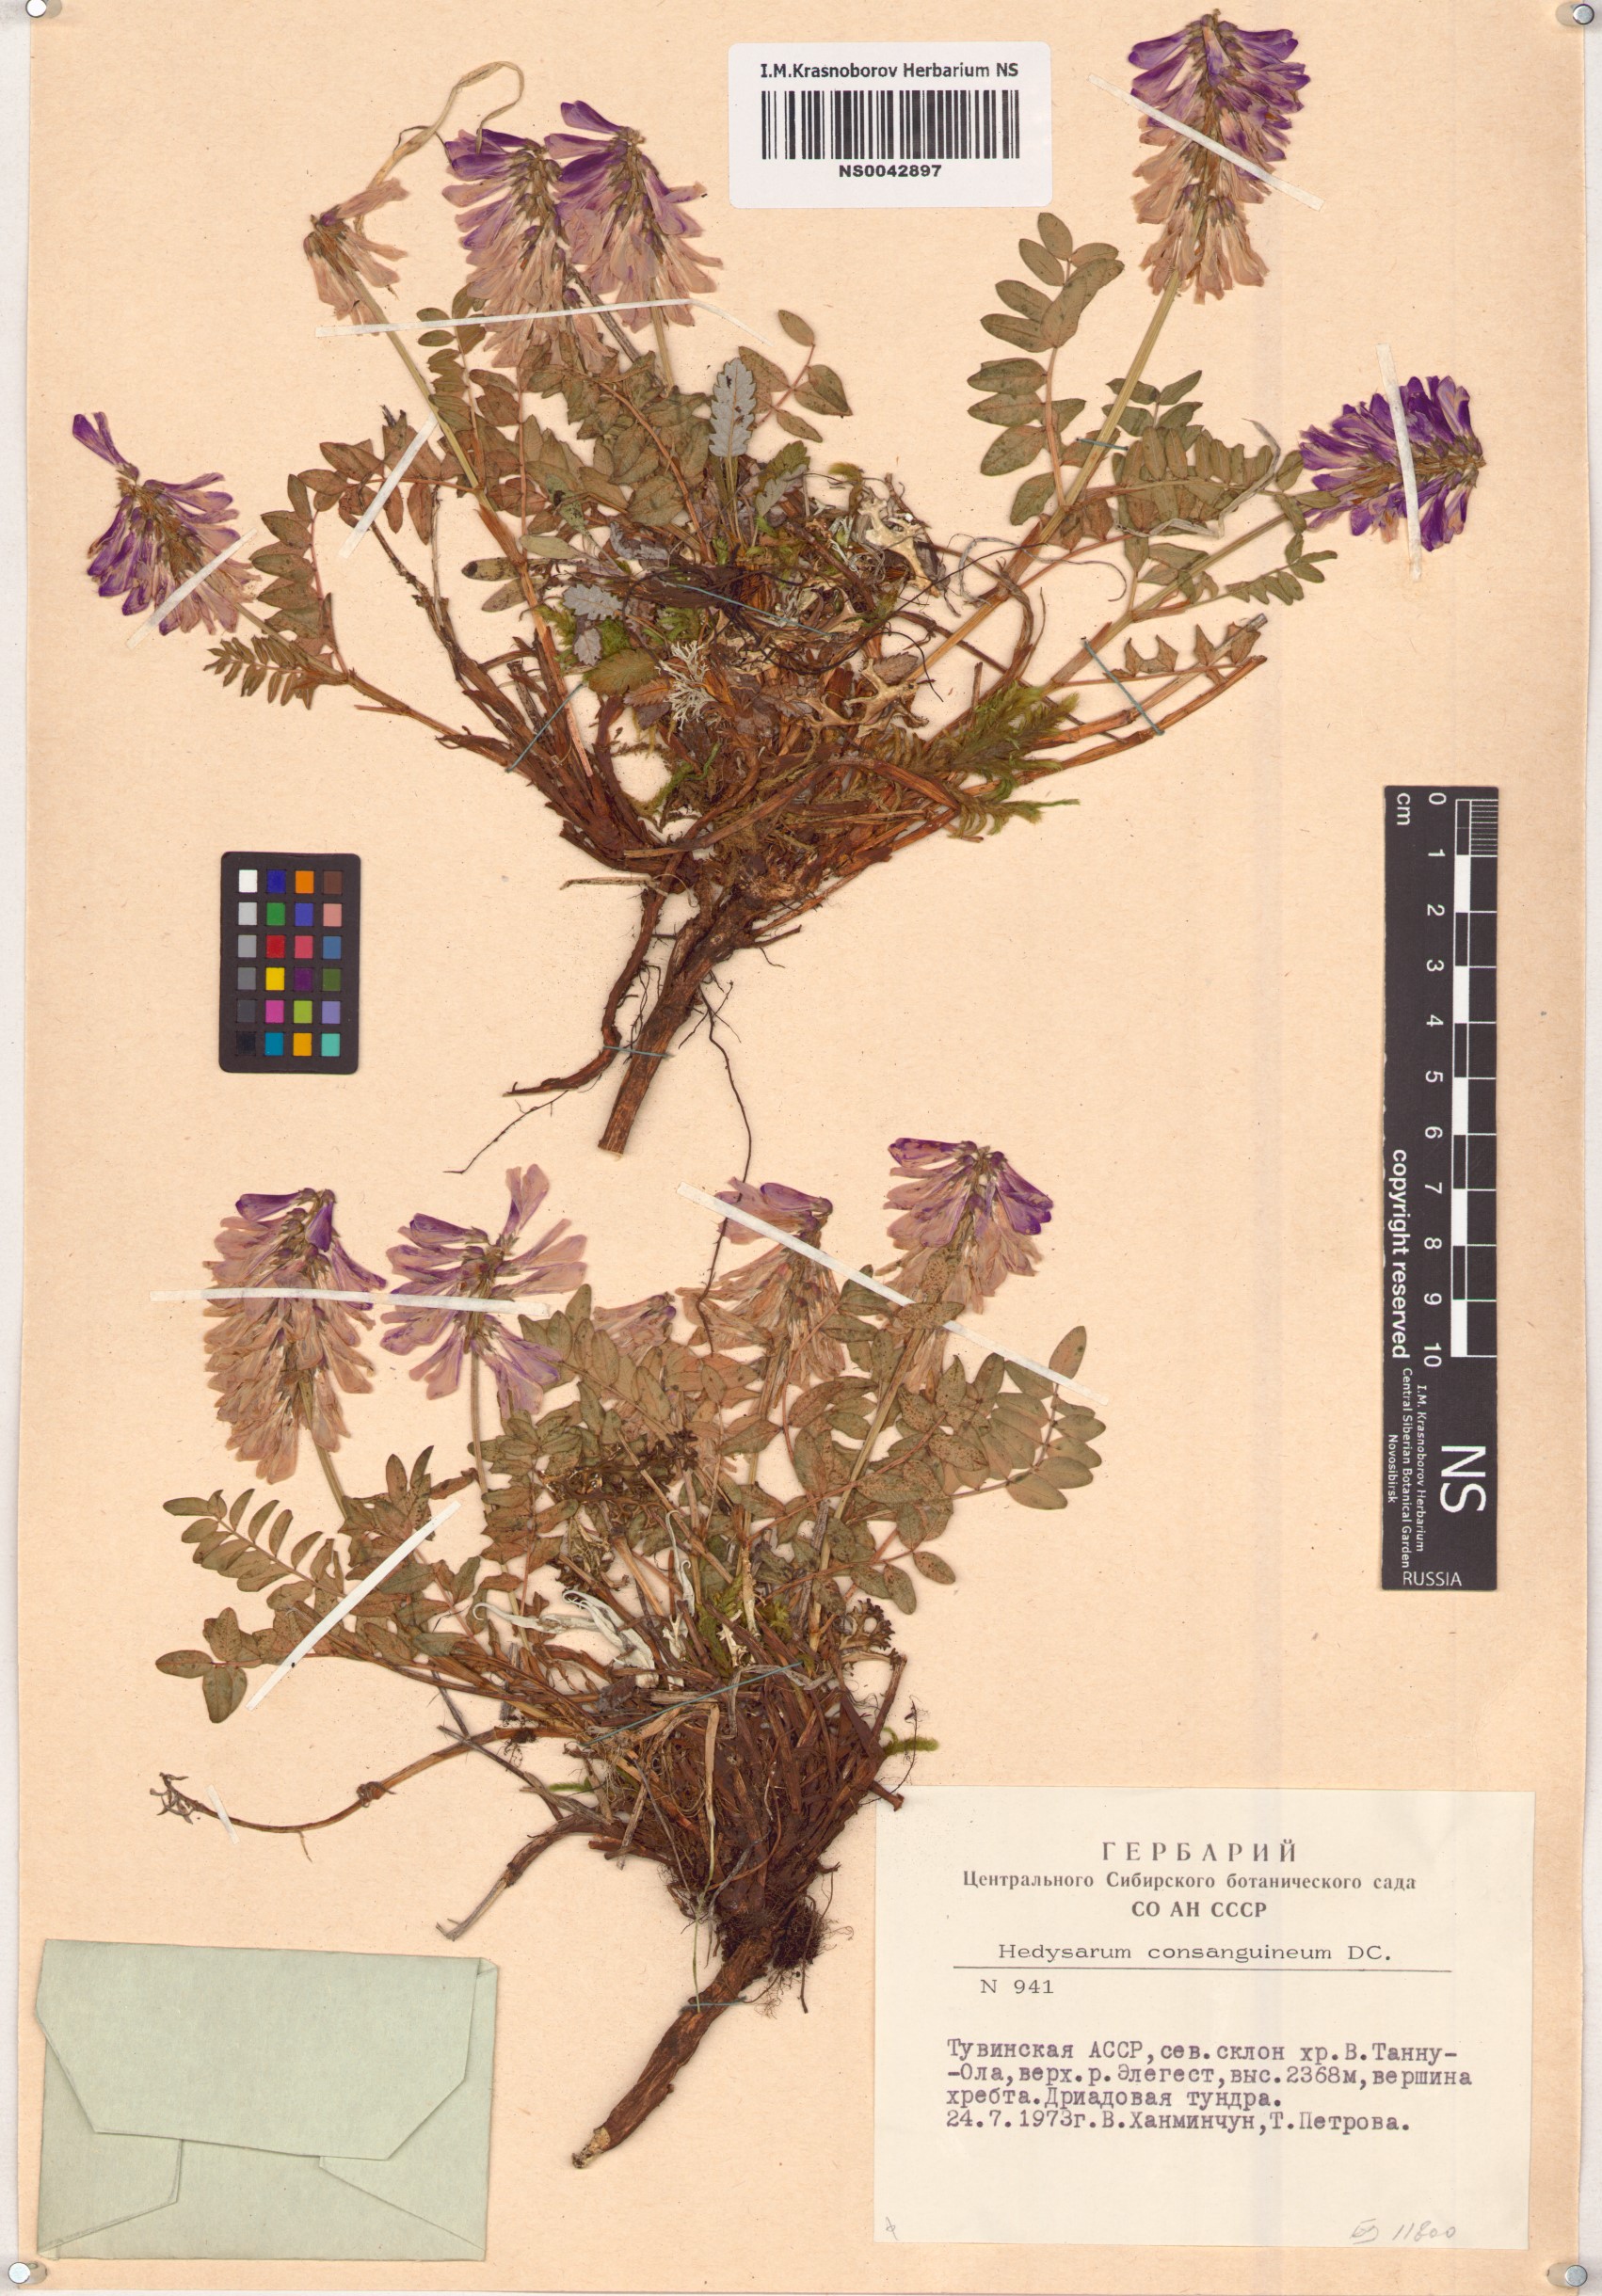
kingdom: Plantae
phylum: Tracheophyta
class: Magnoliopsida
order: Fabales
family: Fabaceae
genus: Hedysarum
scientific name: Hedysarum consanguineum
